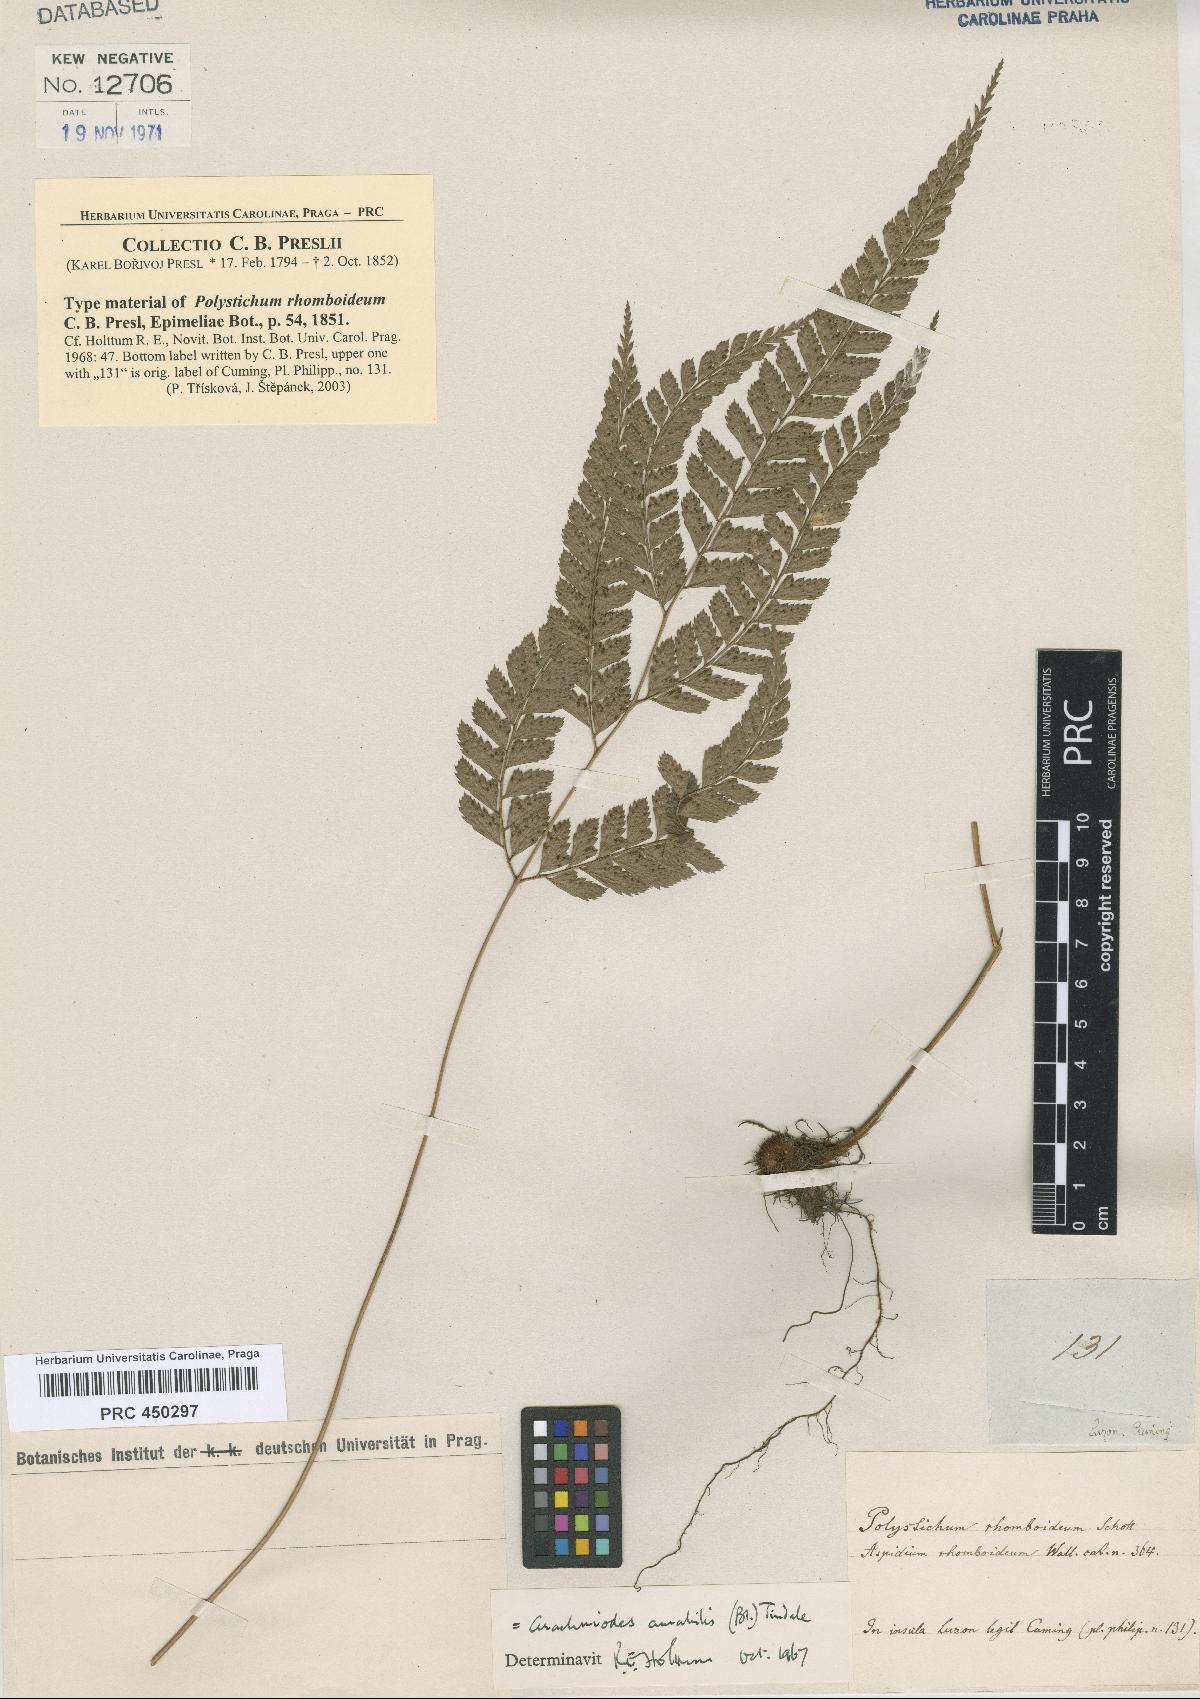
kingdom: Plantae
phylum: Tracheophyta
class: Polypodiopsida
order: Polypodiales
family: Dryopteridaceae
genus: Arachniodes
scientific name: Arachniodes rhomboidea
